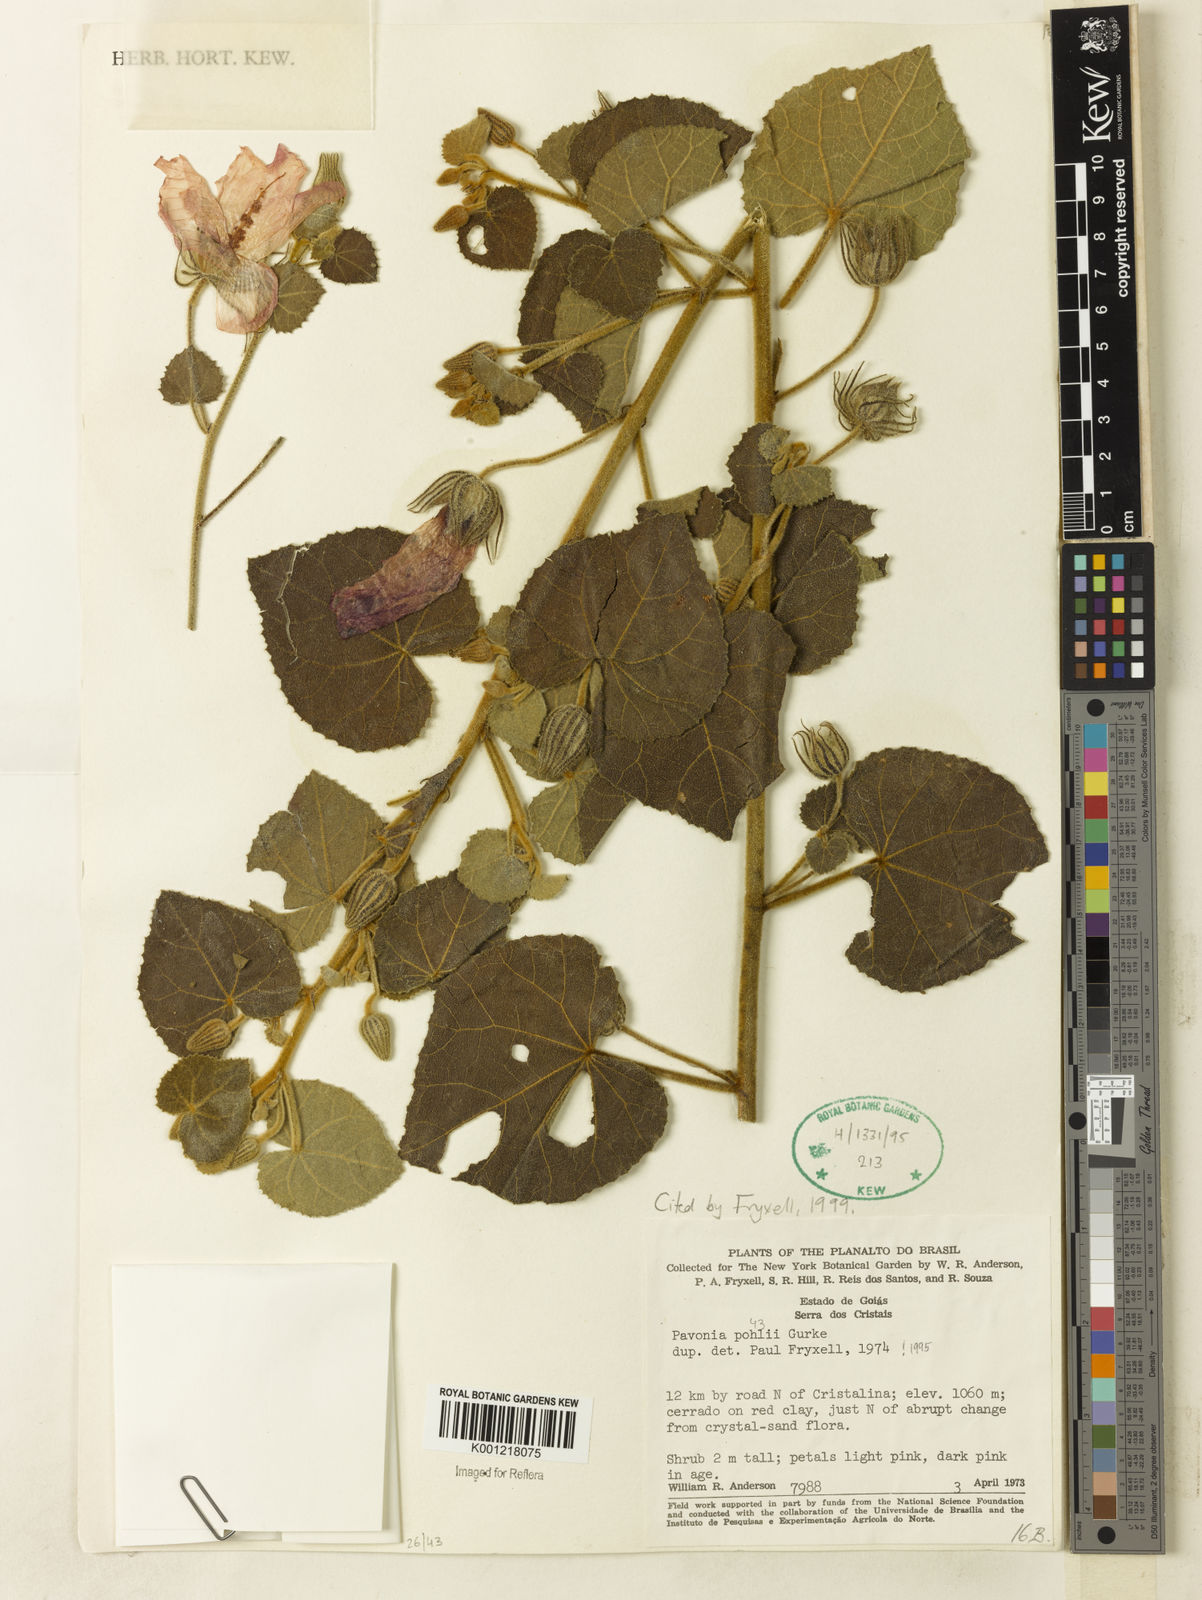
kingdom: Plantae
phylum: Tracheophyta
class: Magnoliopsida
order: Malvales
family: Malvaceae
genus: Pavonia
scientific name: Pavonia
